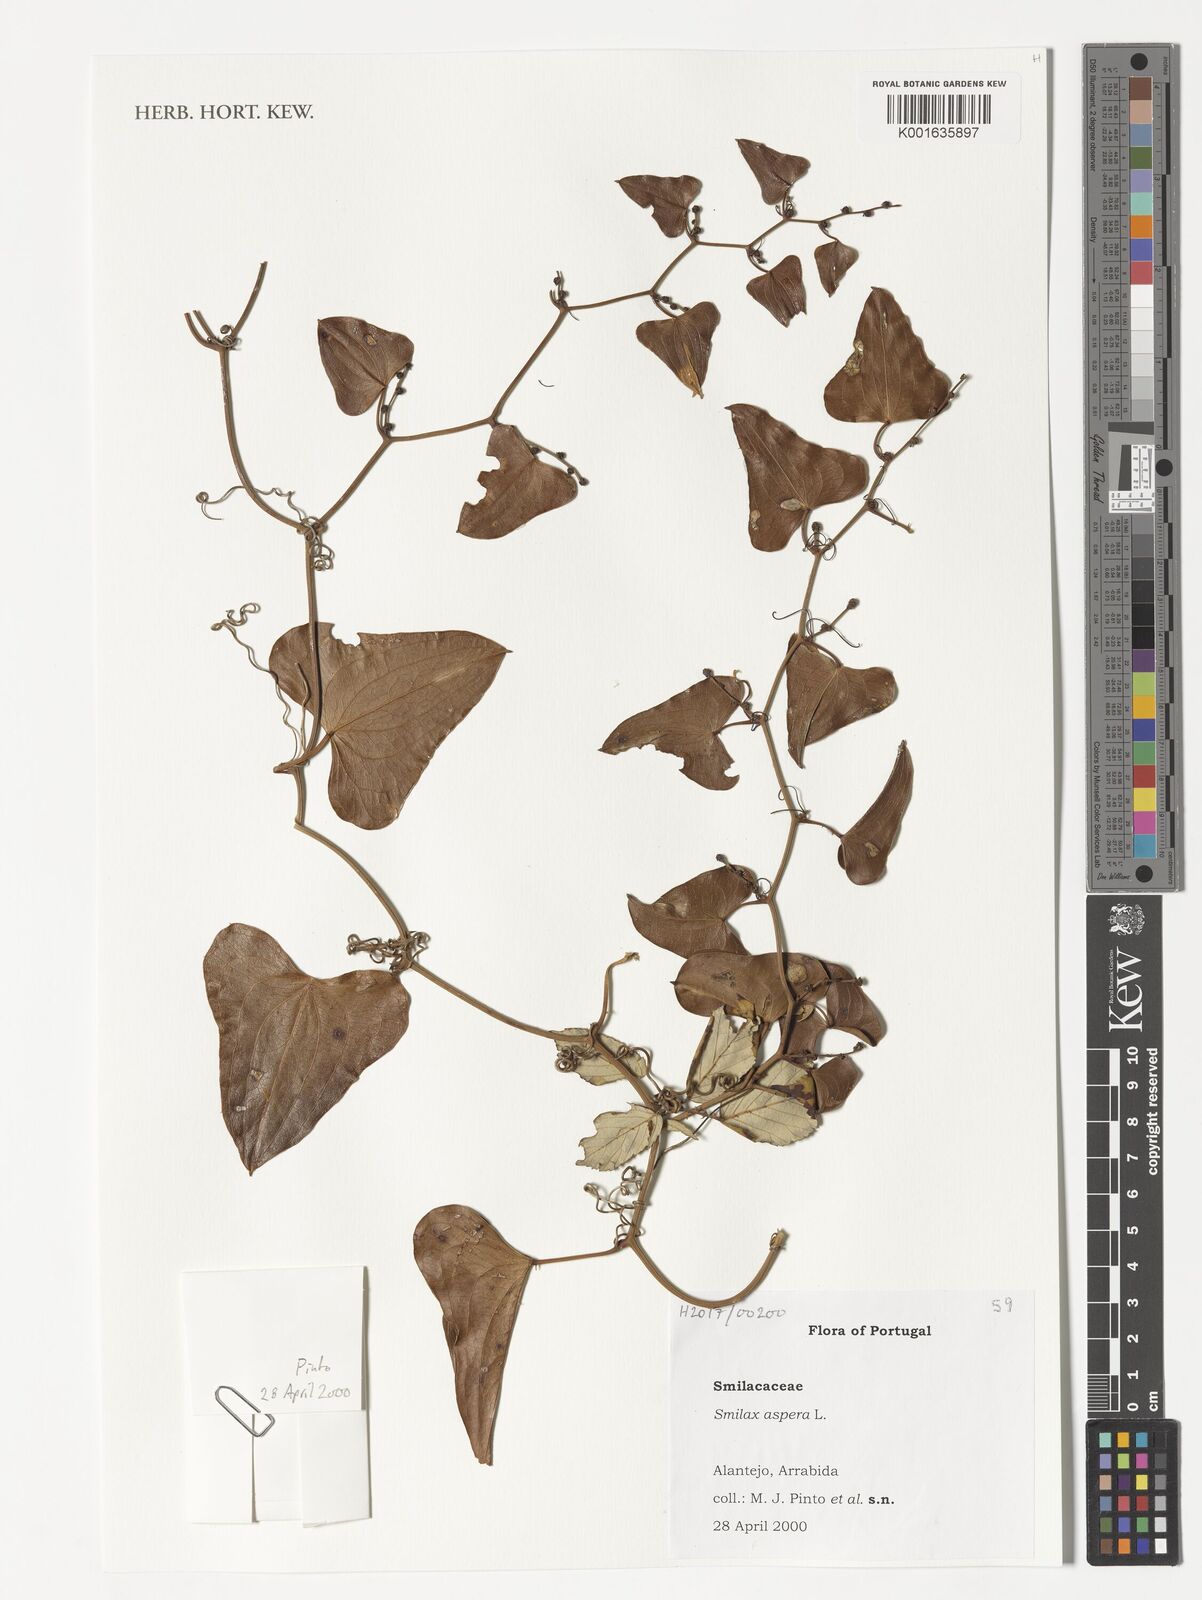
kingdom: Plantae
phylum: Tracheophyta
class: Liliopsida
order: Liliales
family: Smilacaceae
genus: Smilax
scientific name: Smilax aspera
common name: Common smilax
